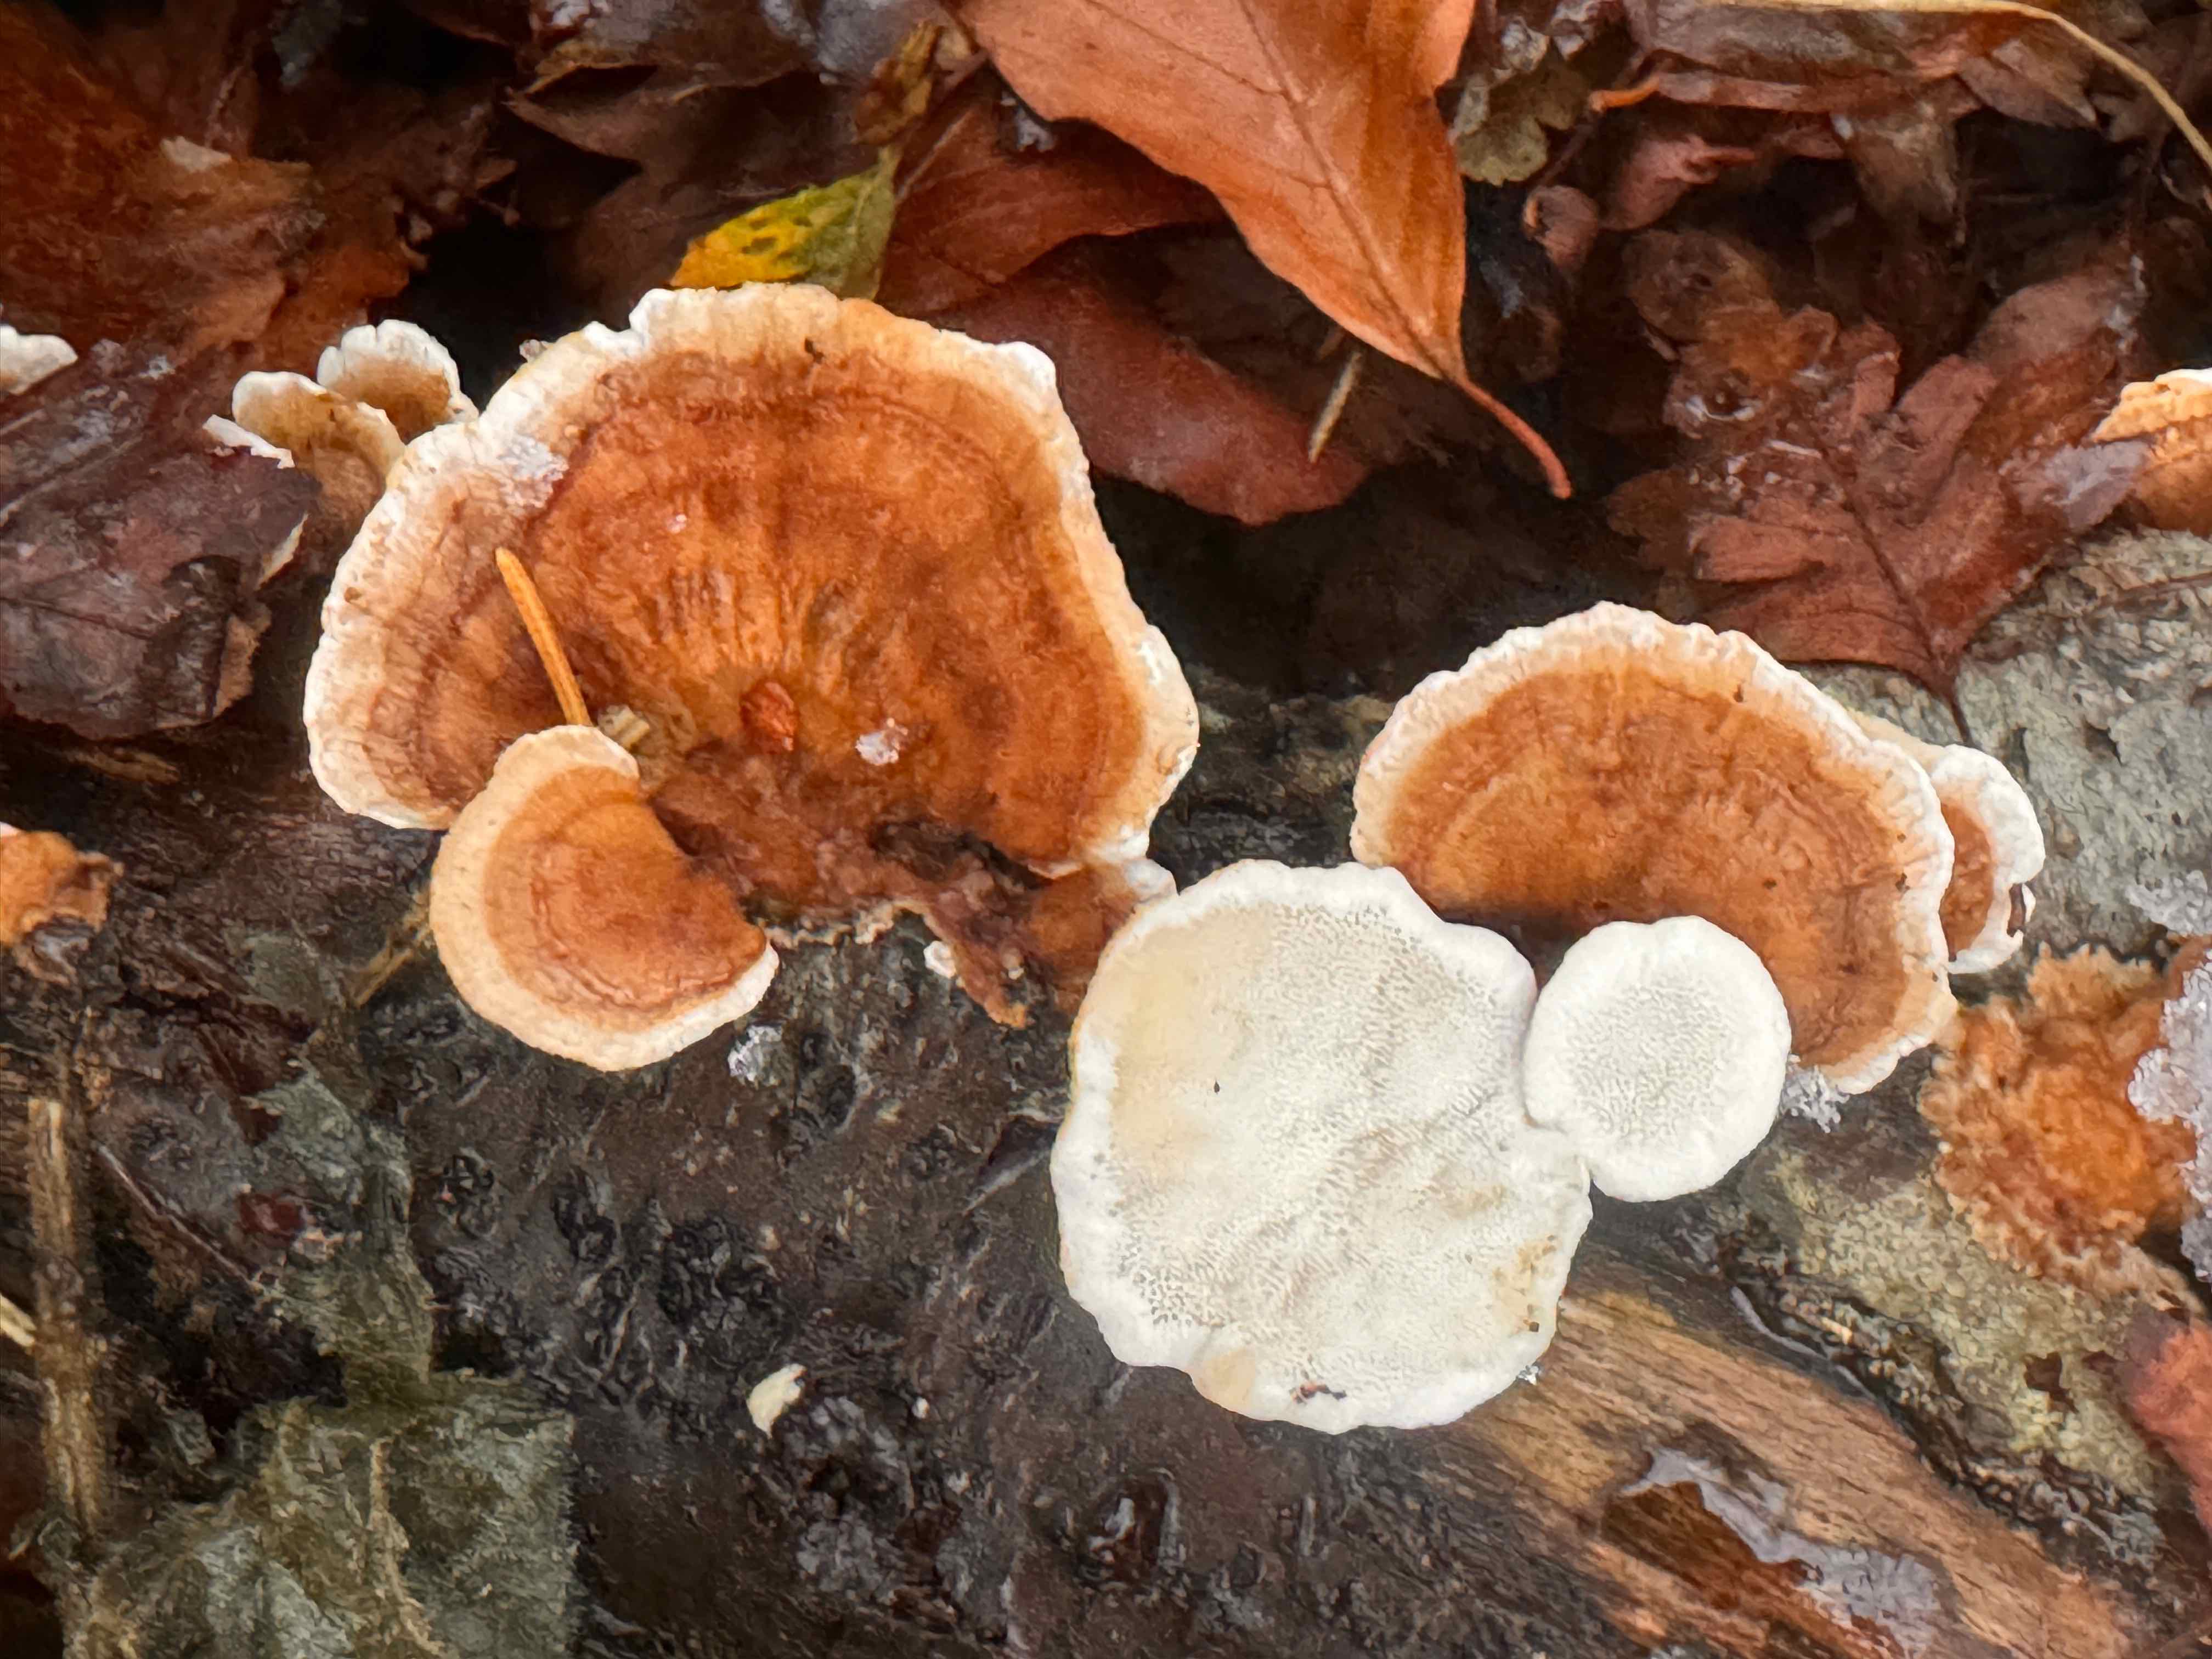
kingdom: Fungi
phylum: Basidiomycota
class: Agaricomycetes
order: Polyporales
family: Polyporaceae
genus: Trametes
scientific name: Trametes ochracea
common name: bæltet læderporesvamp
